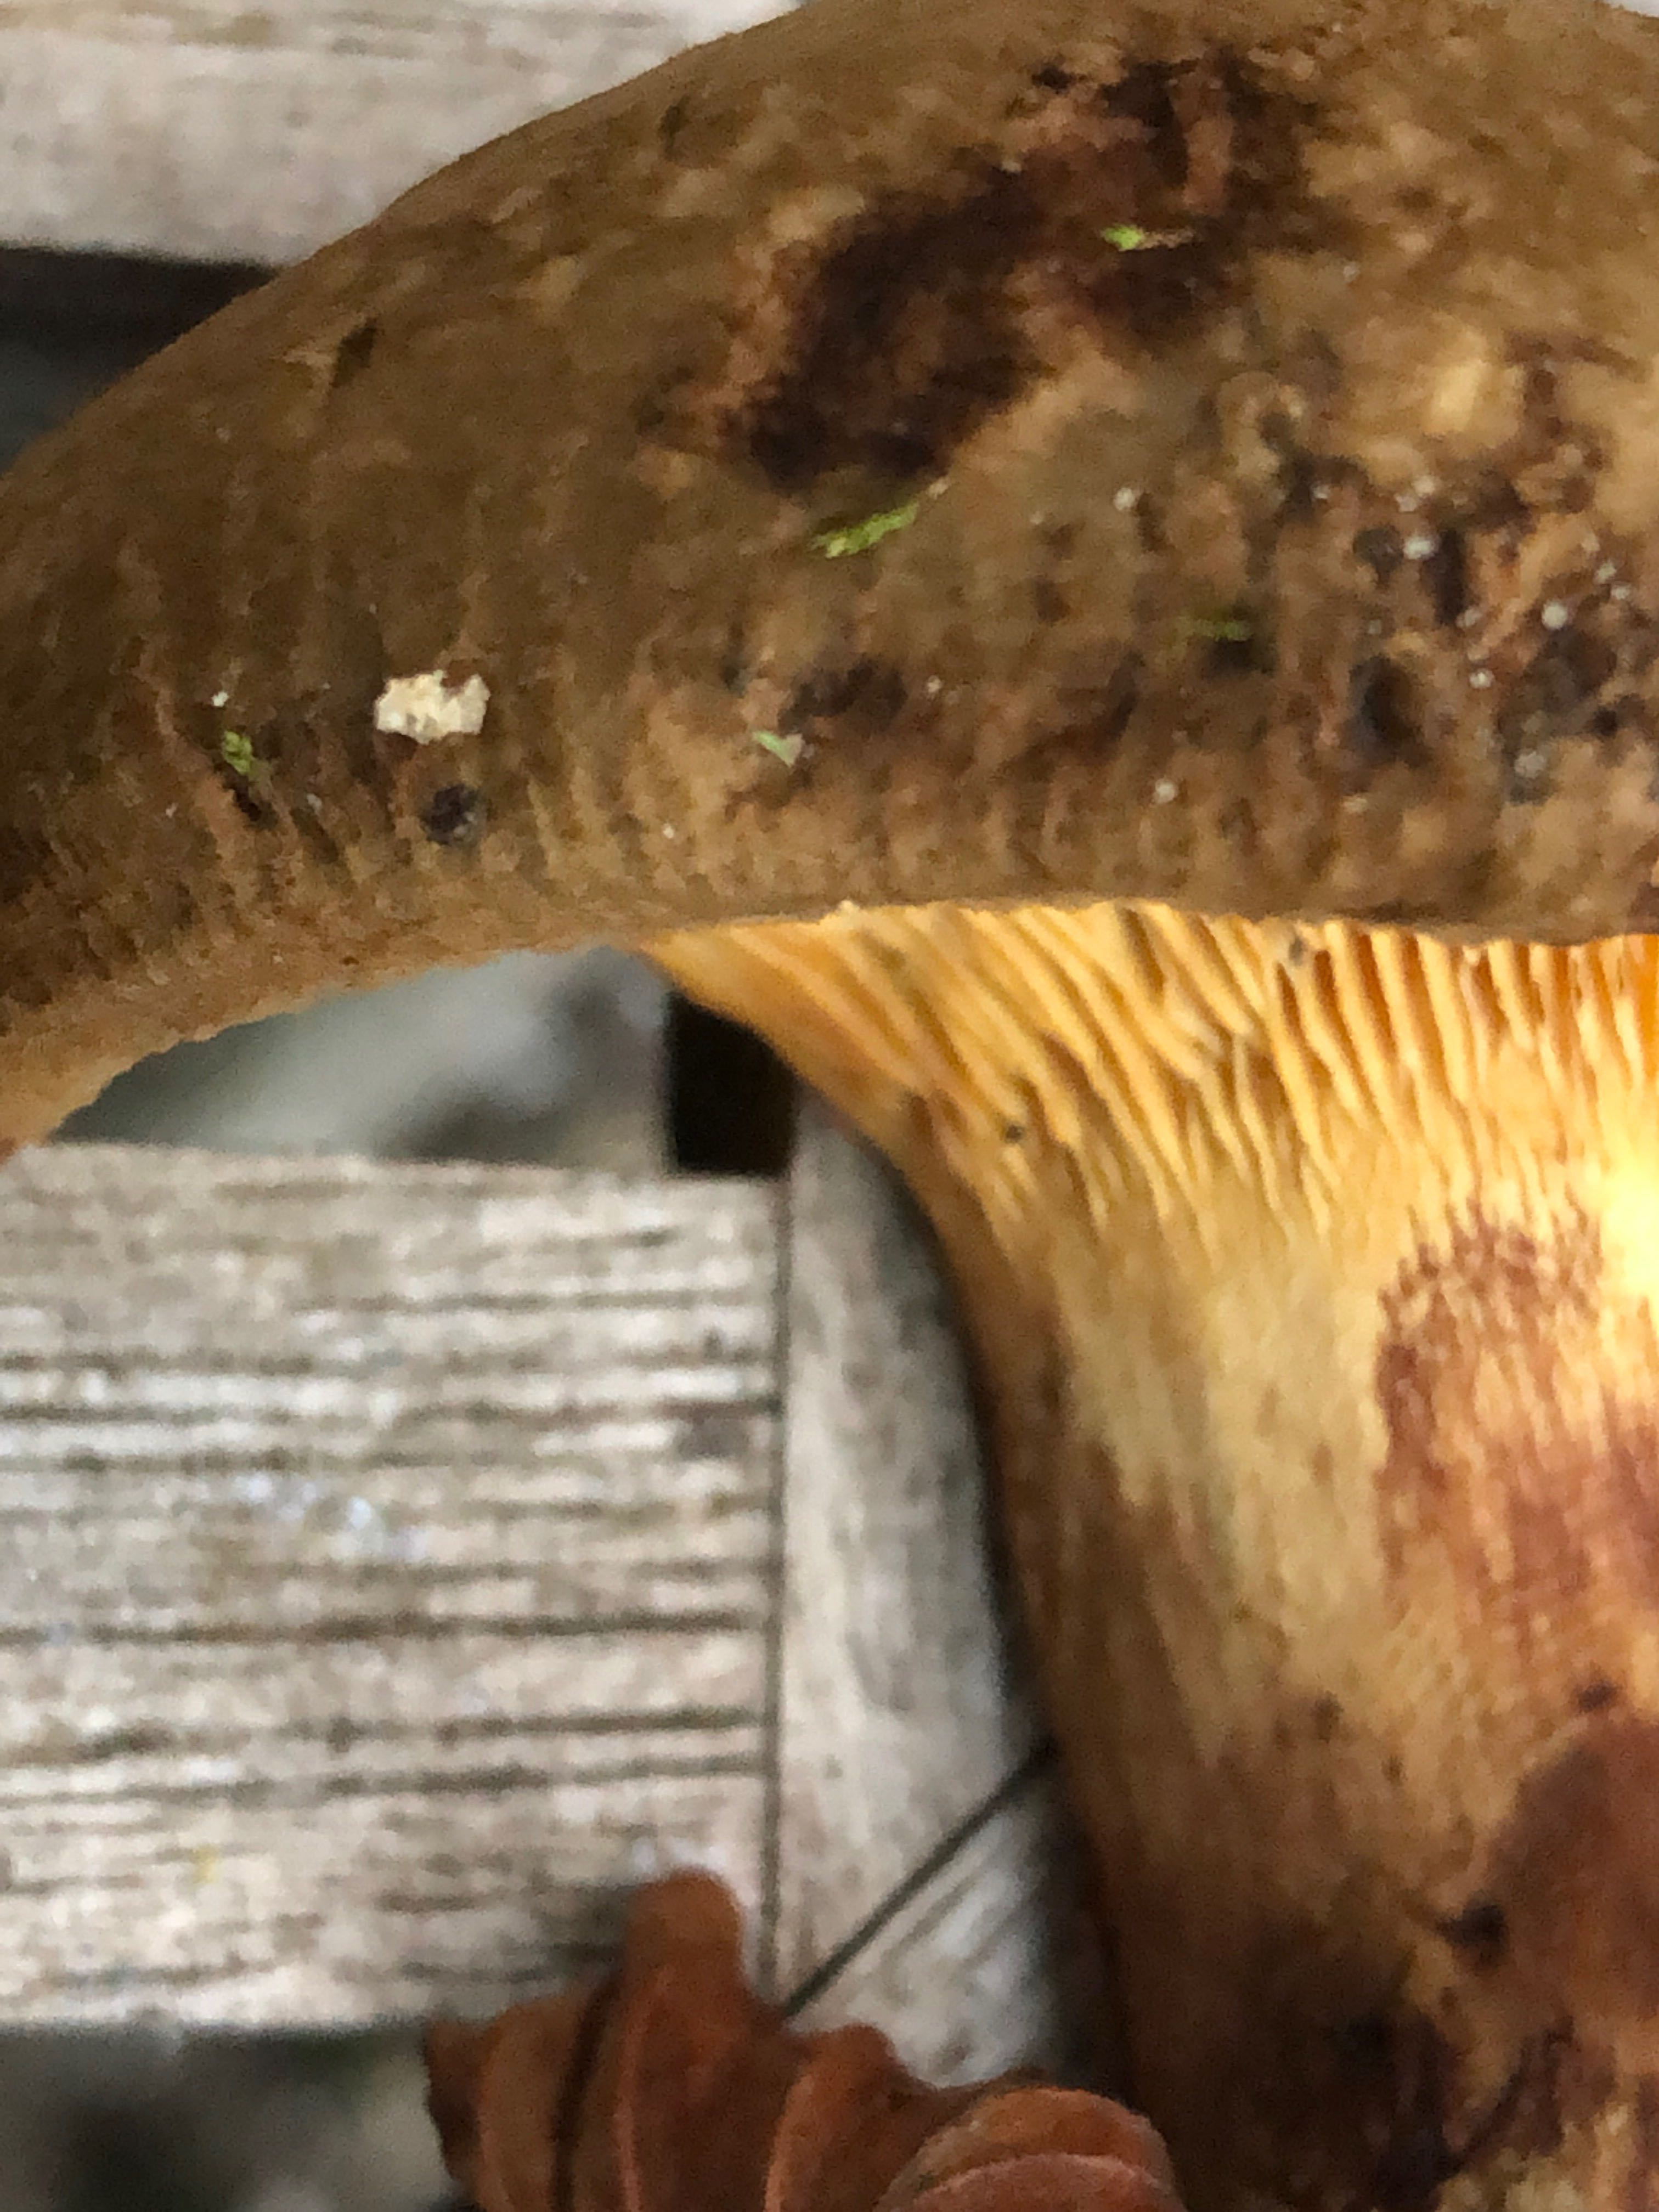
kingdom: Fungi
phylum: Basidiomycota
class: Agaricomycetes
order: Boletales
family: Paxillaceae
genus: Paxillus
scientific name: Paxillus
